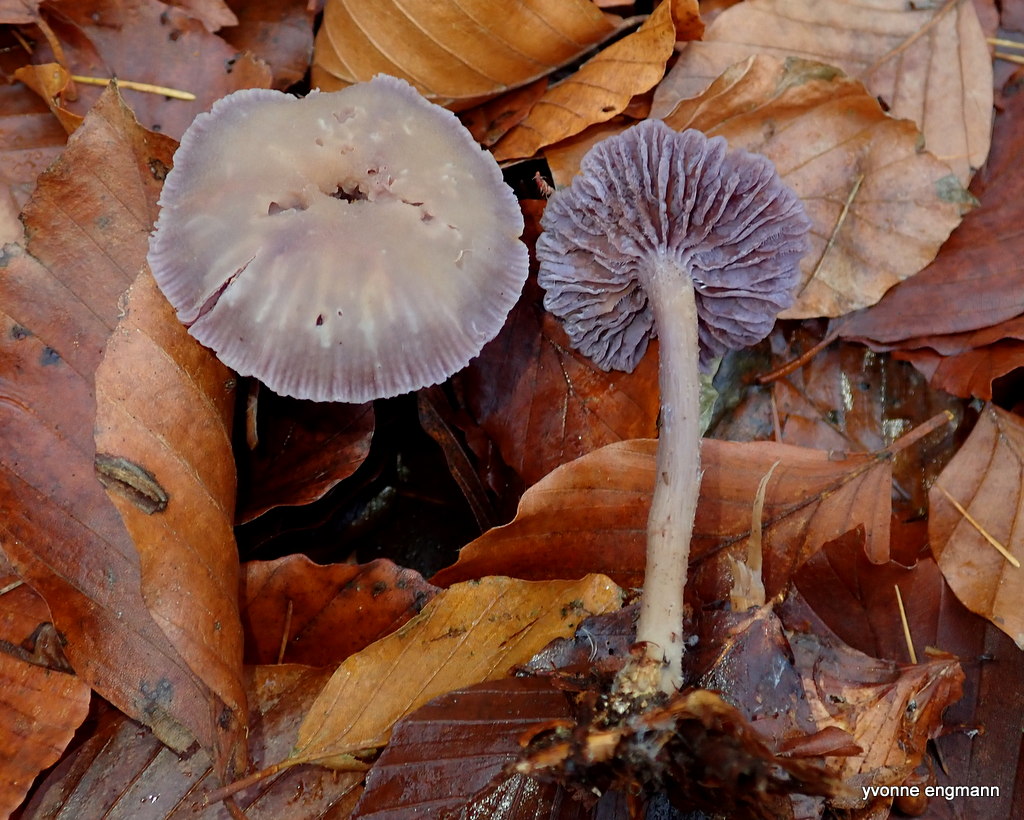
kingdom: Fungi
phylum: Basidiomycota
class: Agaricomycetes
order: Agaricales
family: Hydnangiaceae
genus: Laccaria
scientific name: Laccaria amethystina
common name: violet ametysthat
